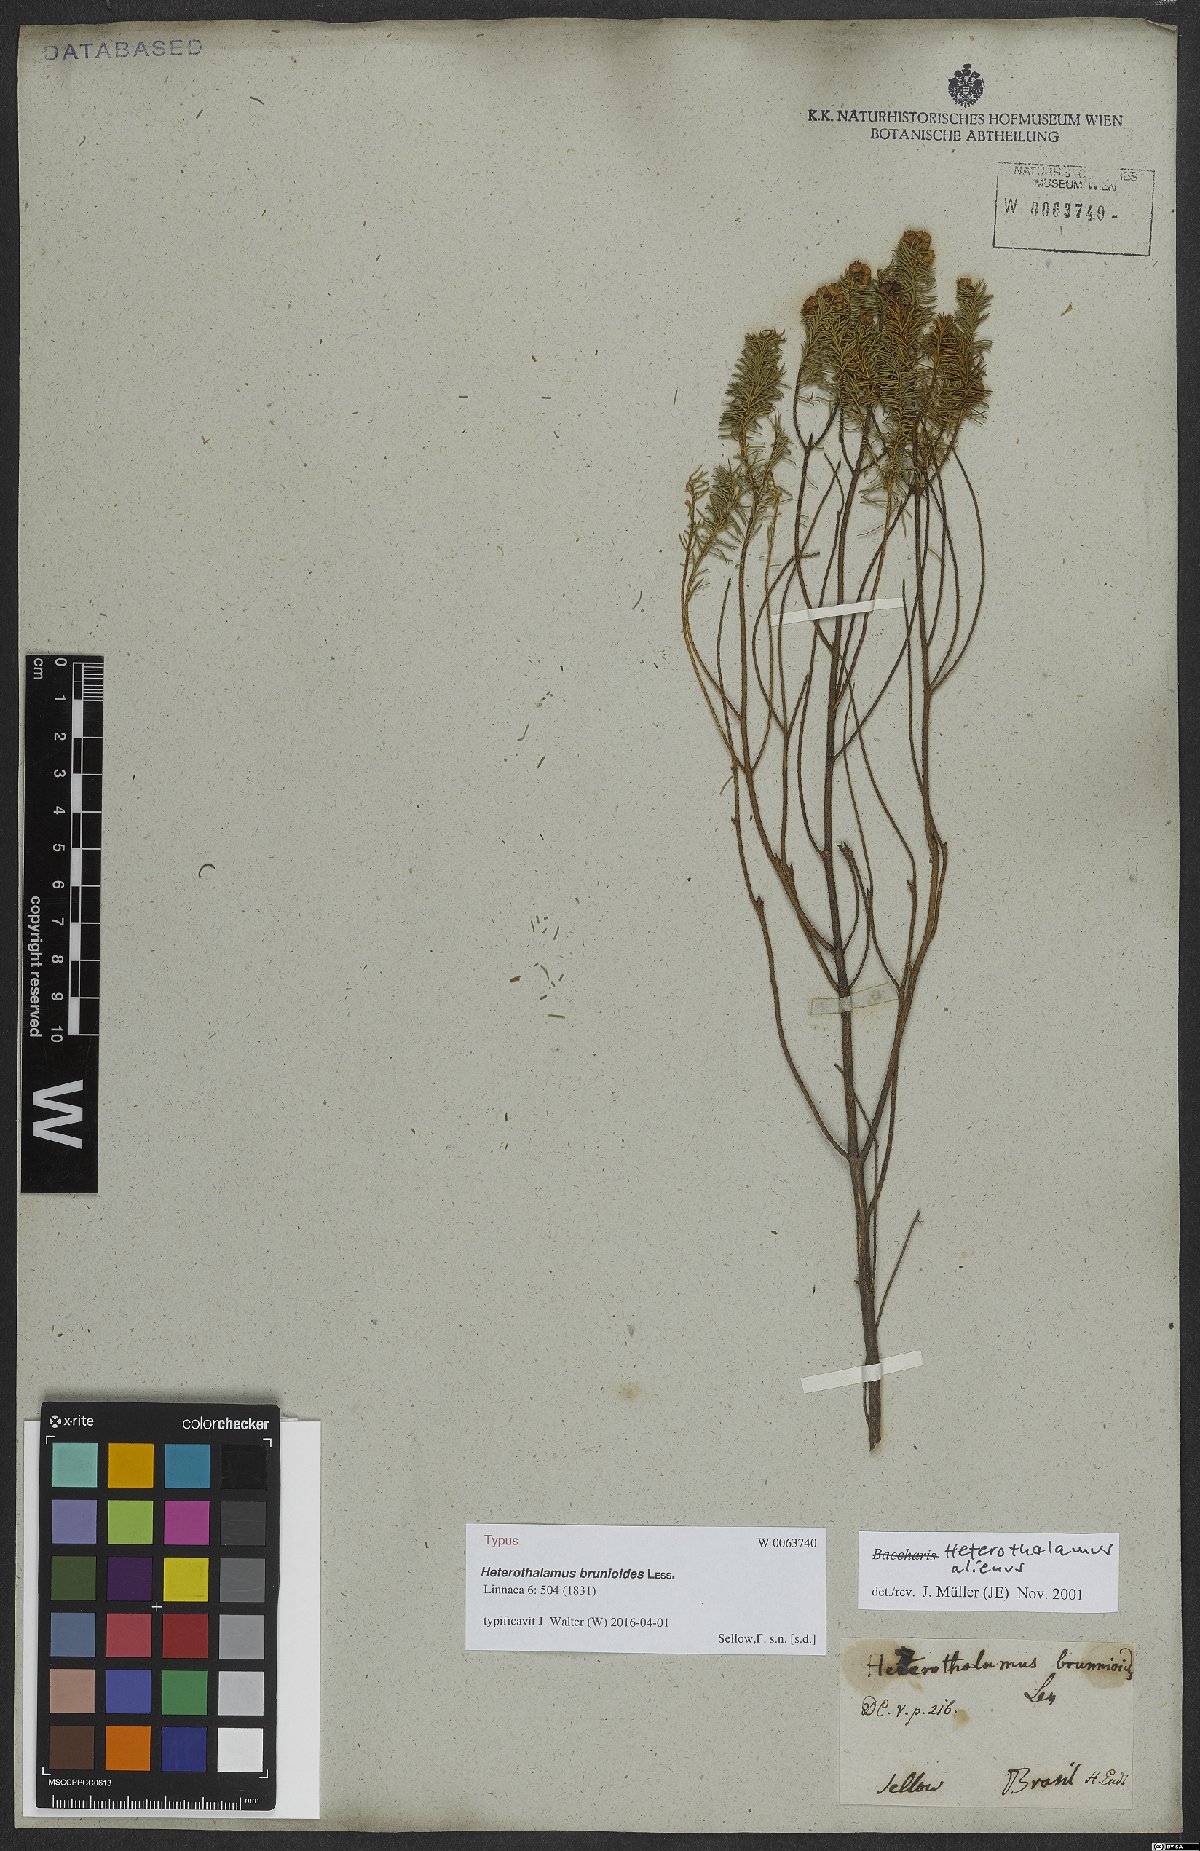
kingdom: Plantae
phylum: Tracheophyta
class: Magnoliopsida
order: Asterales
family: Asteraceae
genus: Baccharis
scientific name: Baccharis aliena
